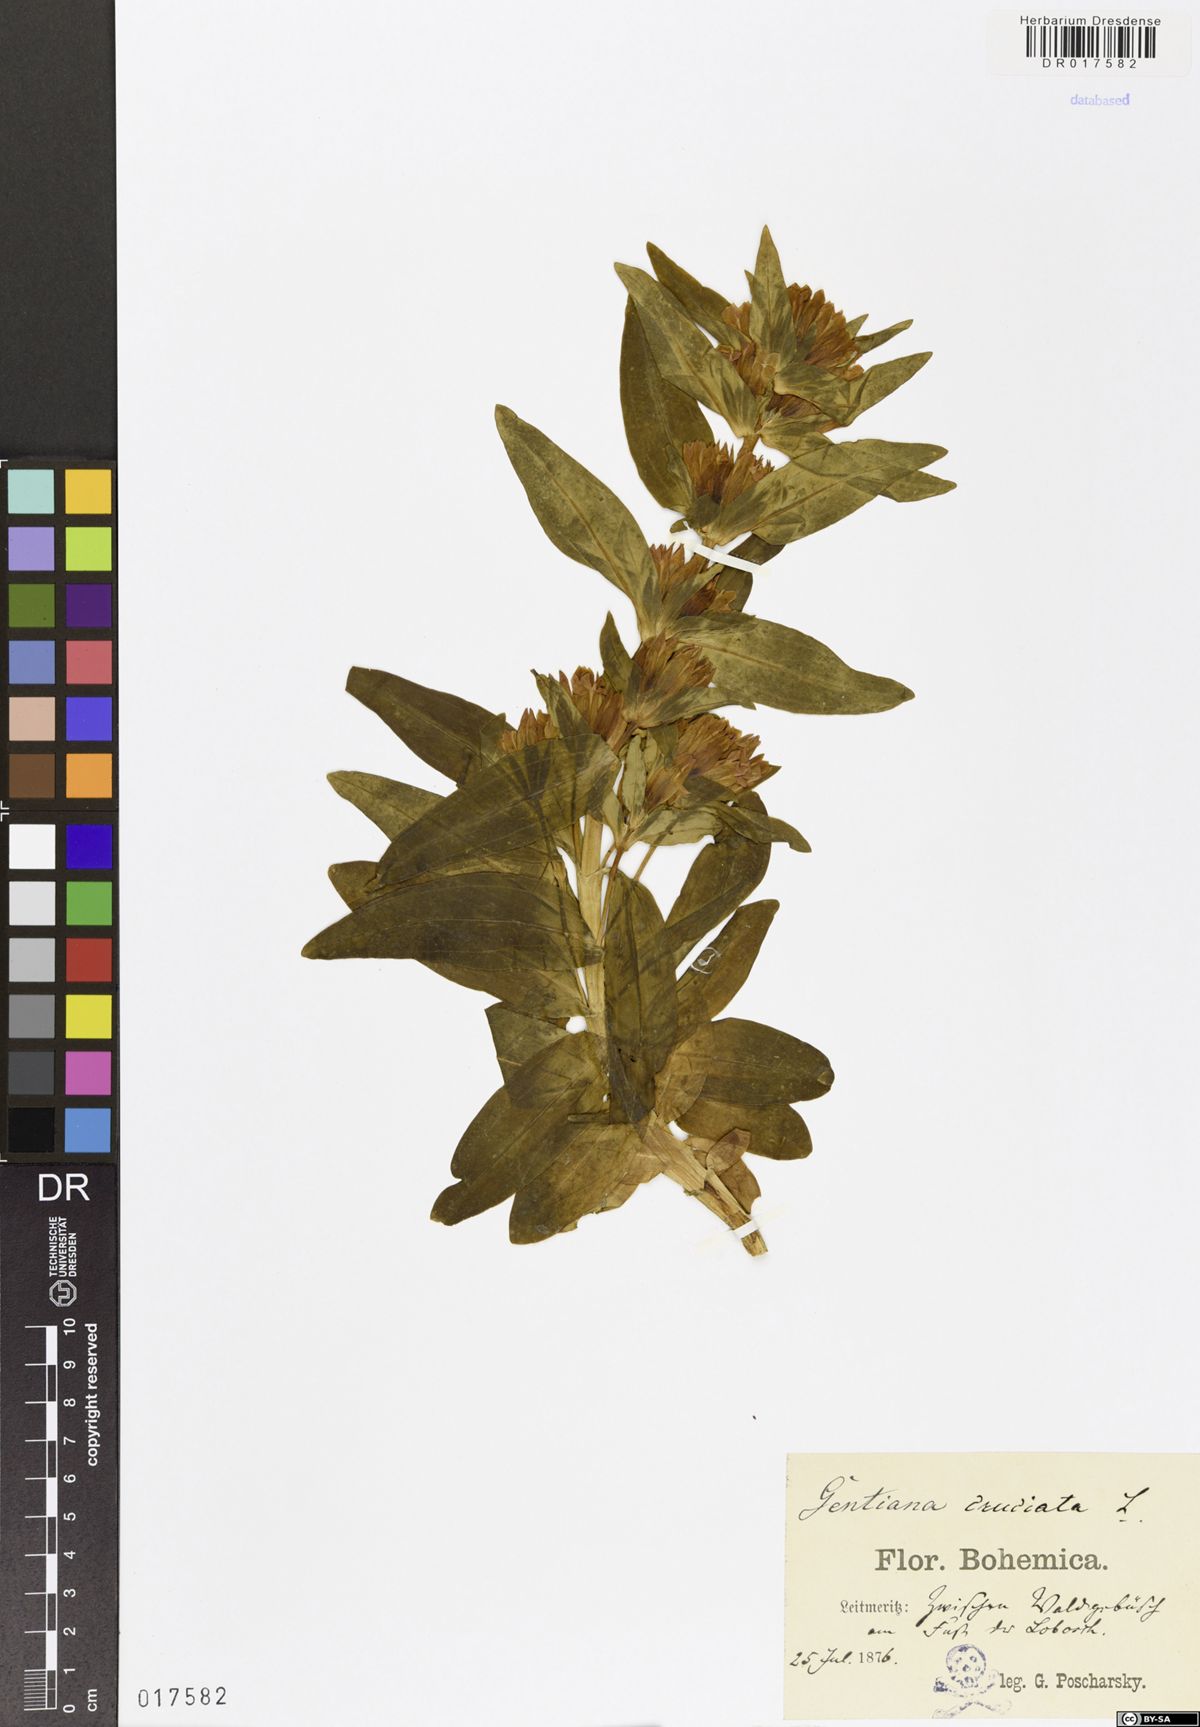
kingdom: Plantae
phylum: Tracheophyta
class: Magnoliopsida
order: Gentianales
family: Gentianaceae
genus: Gentiana
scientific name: Gentiana cruciata
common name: Cross gentian
